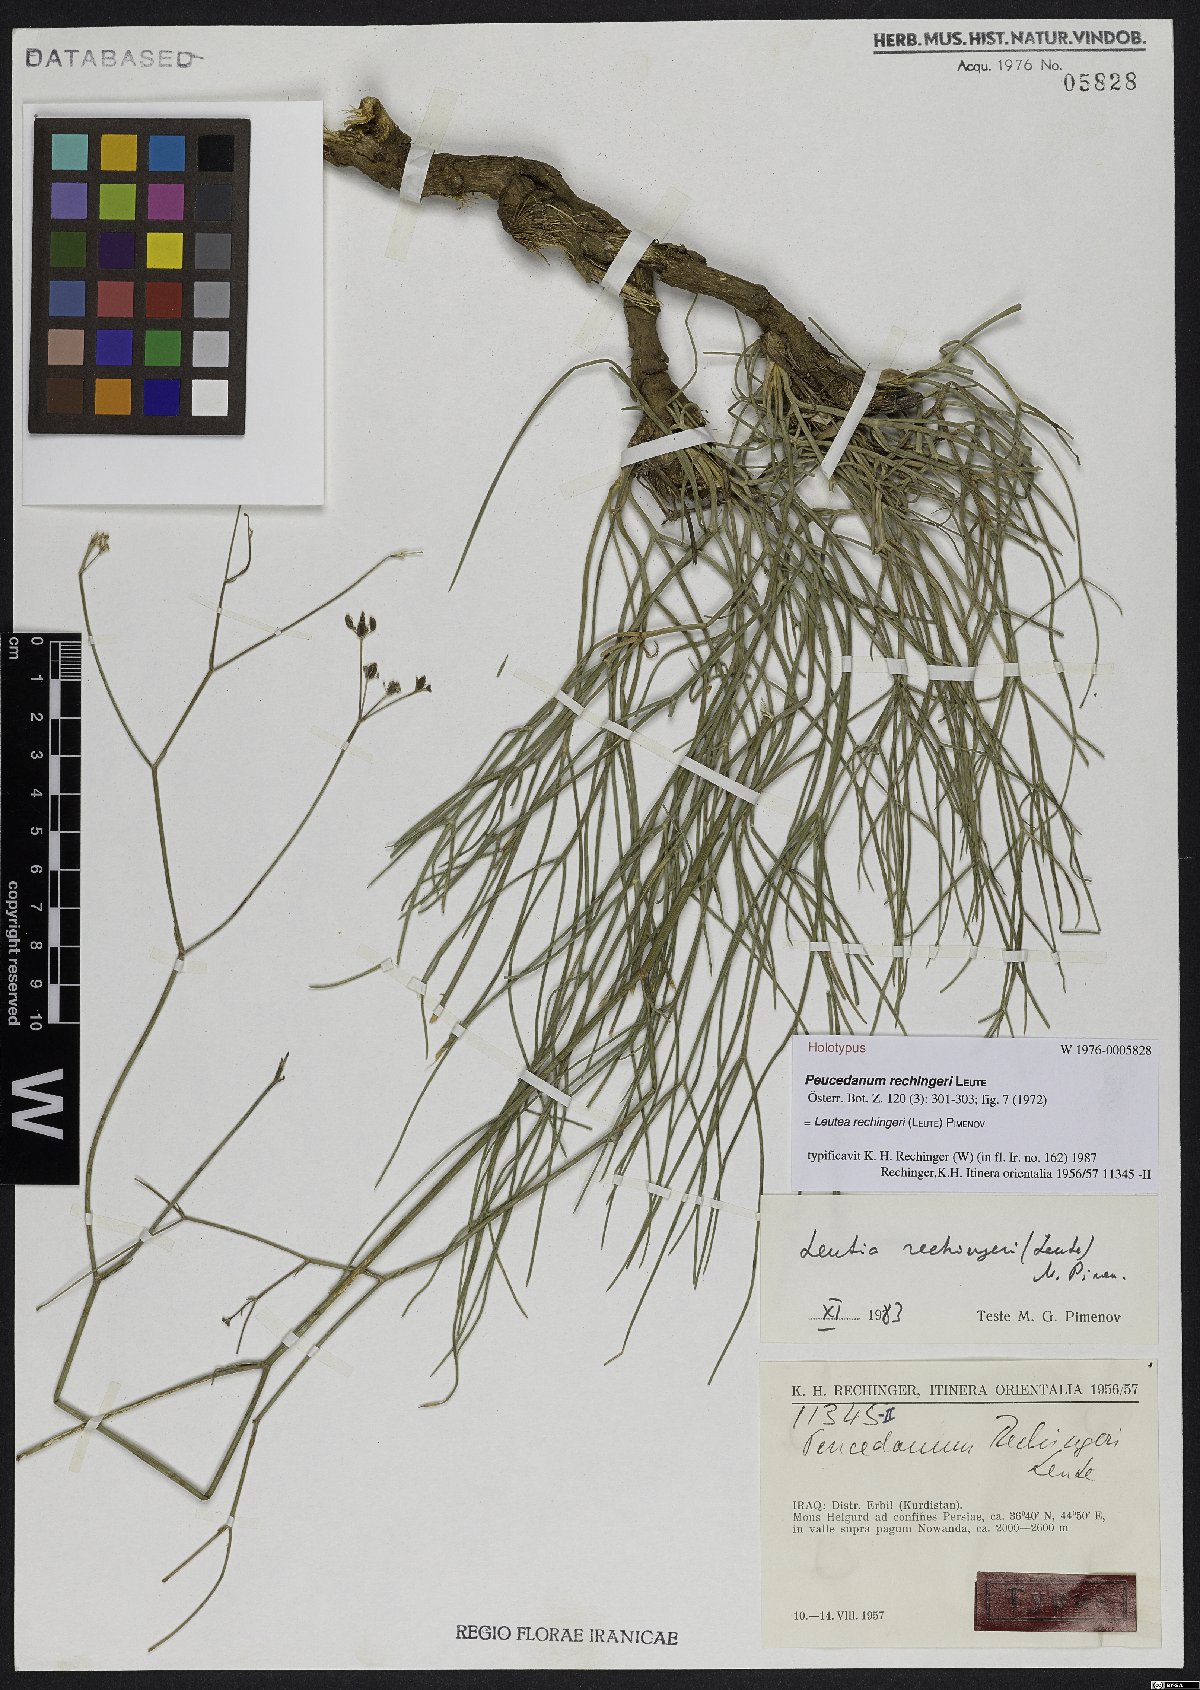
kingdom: Plantae
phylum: Tracheophyta
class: Magnoliopsida
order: Apiales
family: Apiaceae
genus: Leutea
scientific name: Leutea rechingeri
